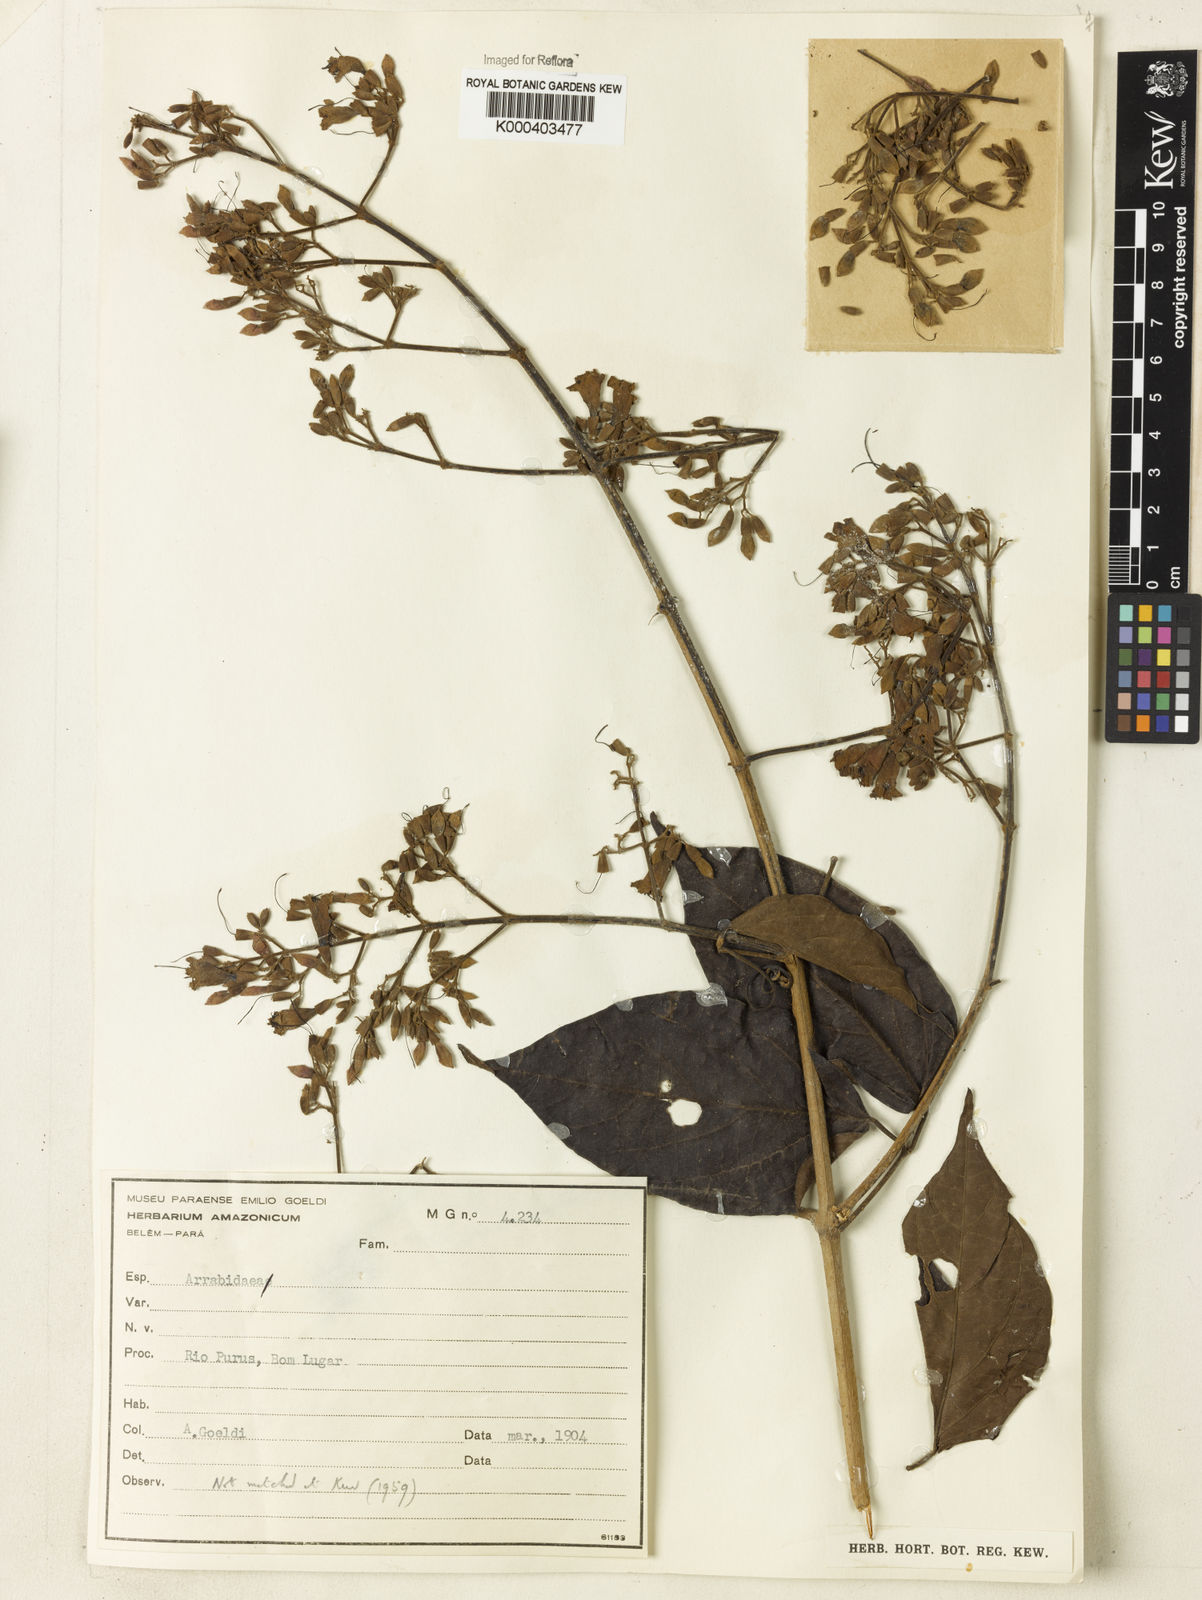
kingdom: Plantae
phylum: Tracheophyta
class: Magnoliopsida
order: Rosales
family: Rhamnaceae
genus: Arrabidaea
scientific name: Arrabidaea
